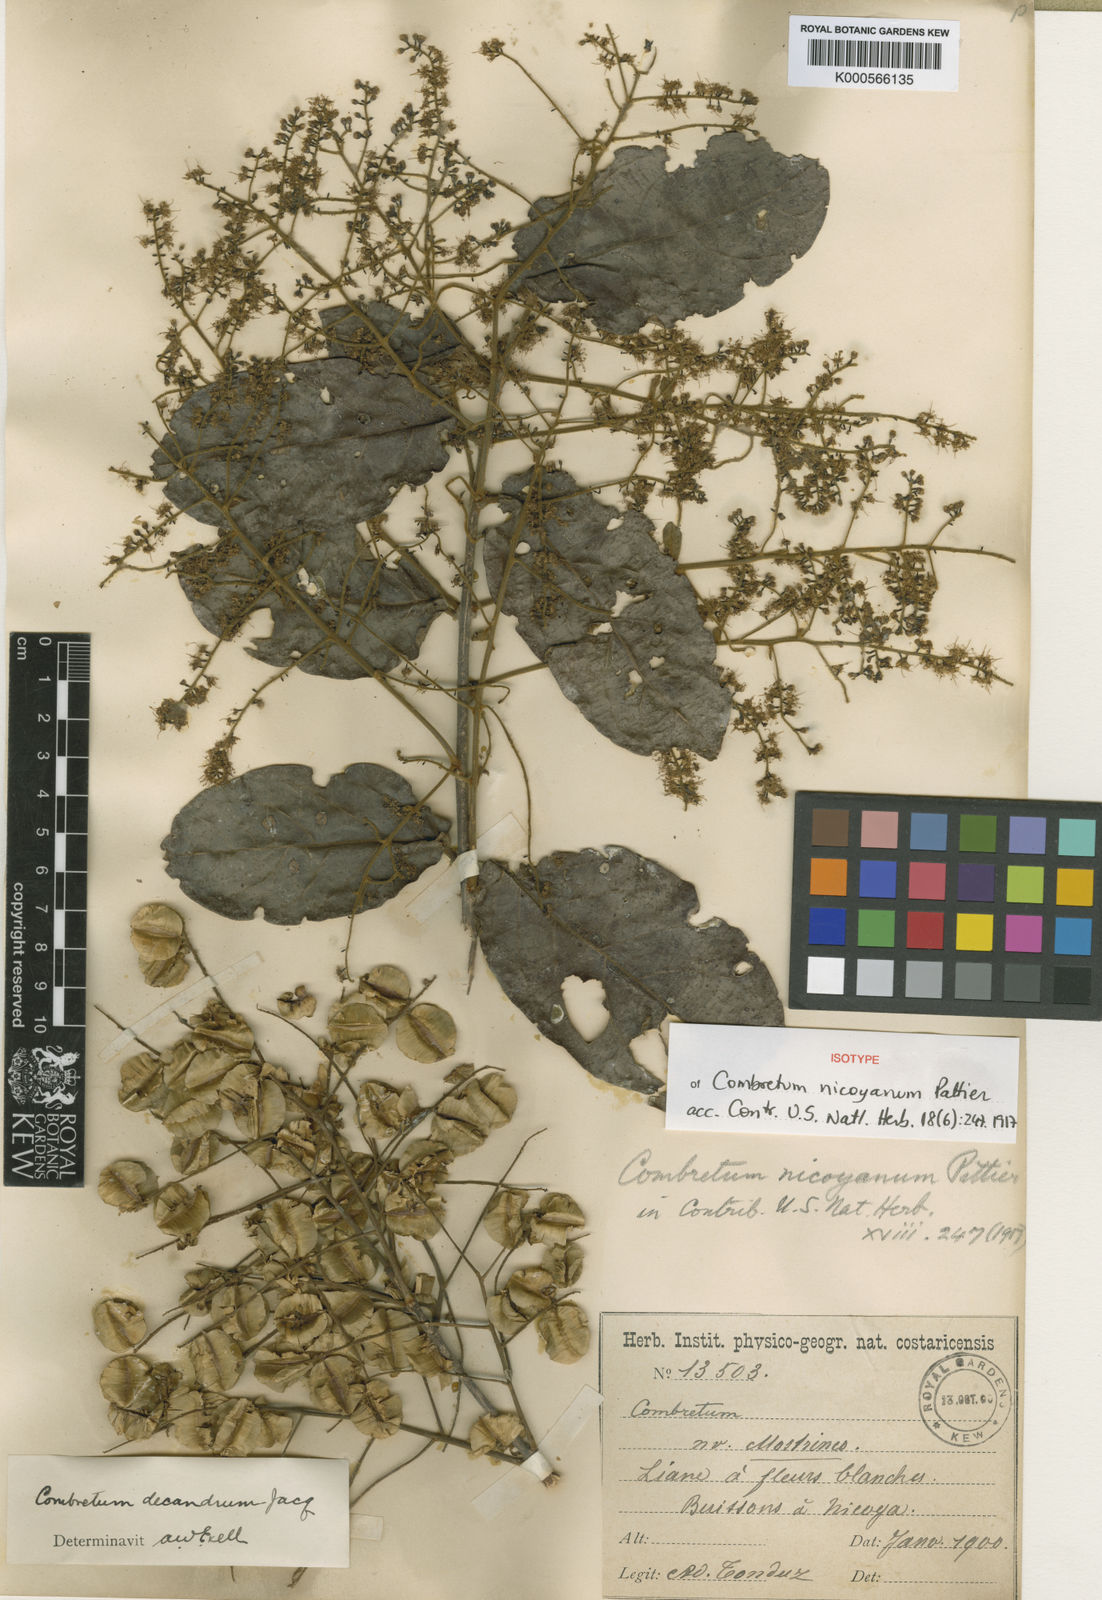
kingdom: Plantae
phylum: Tracheophyta
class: Magnoliopsida
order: Myrtales
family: Combretaceae
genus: Combretum
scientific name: Combretum decandrum
